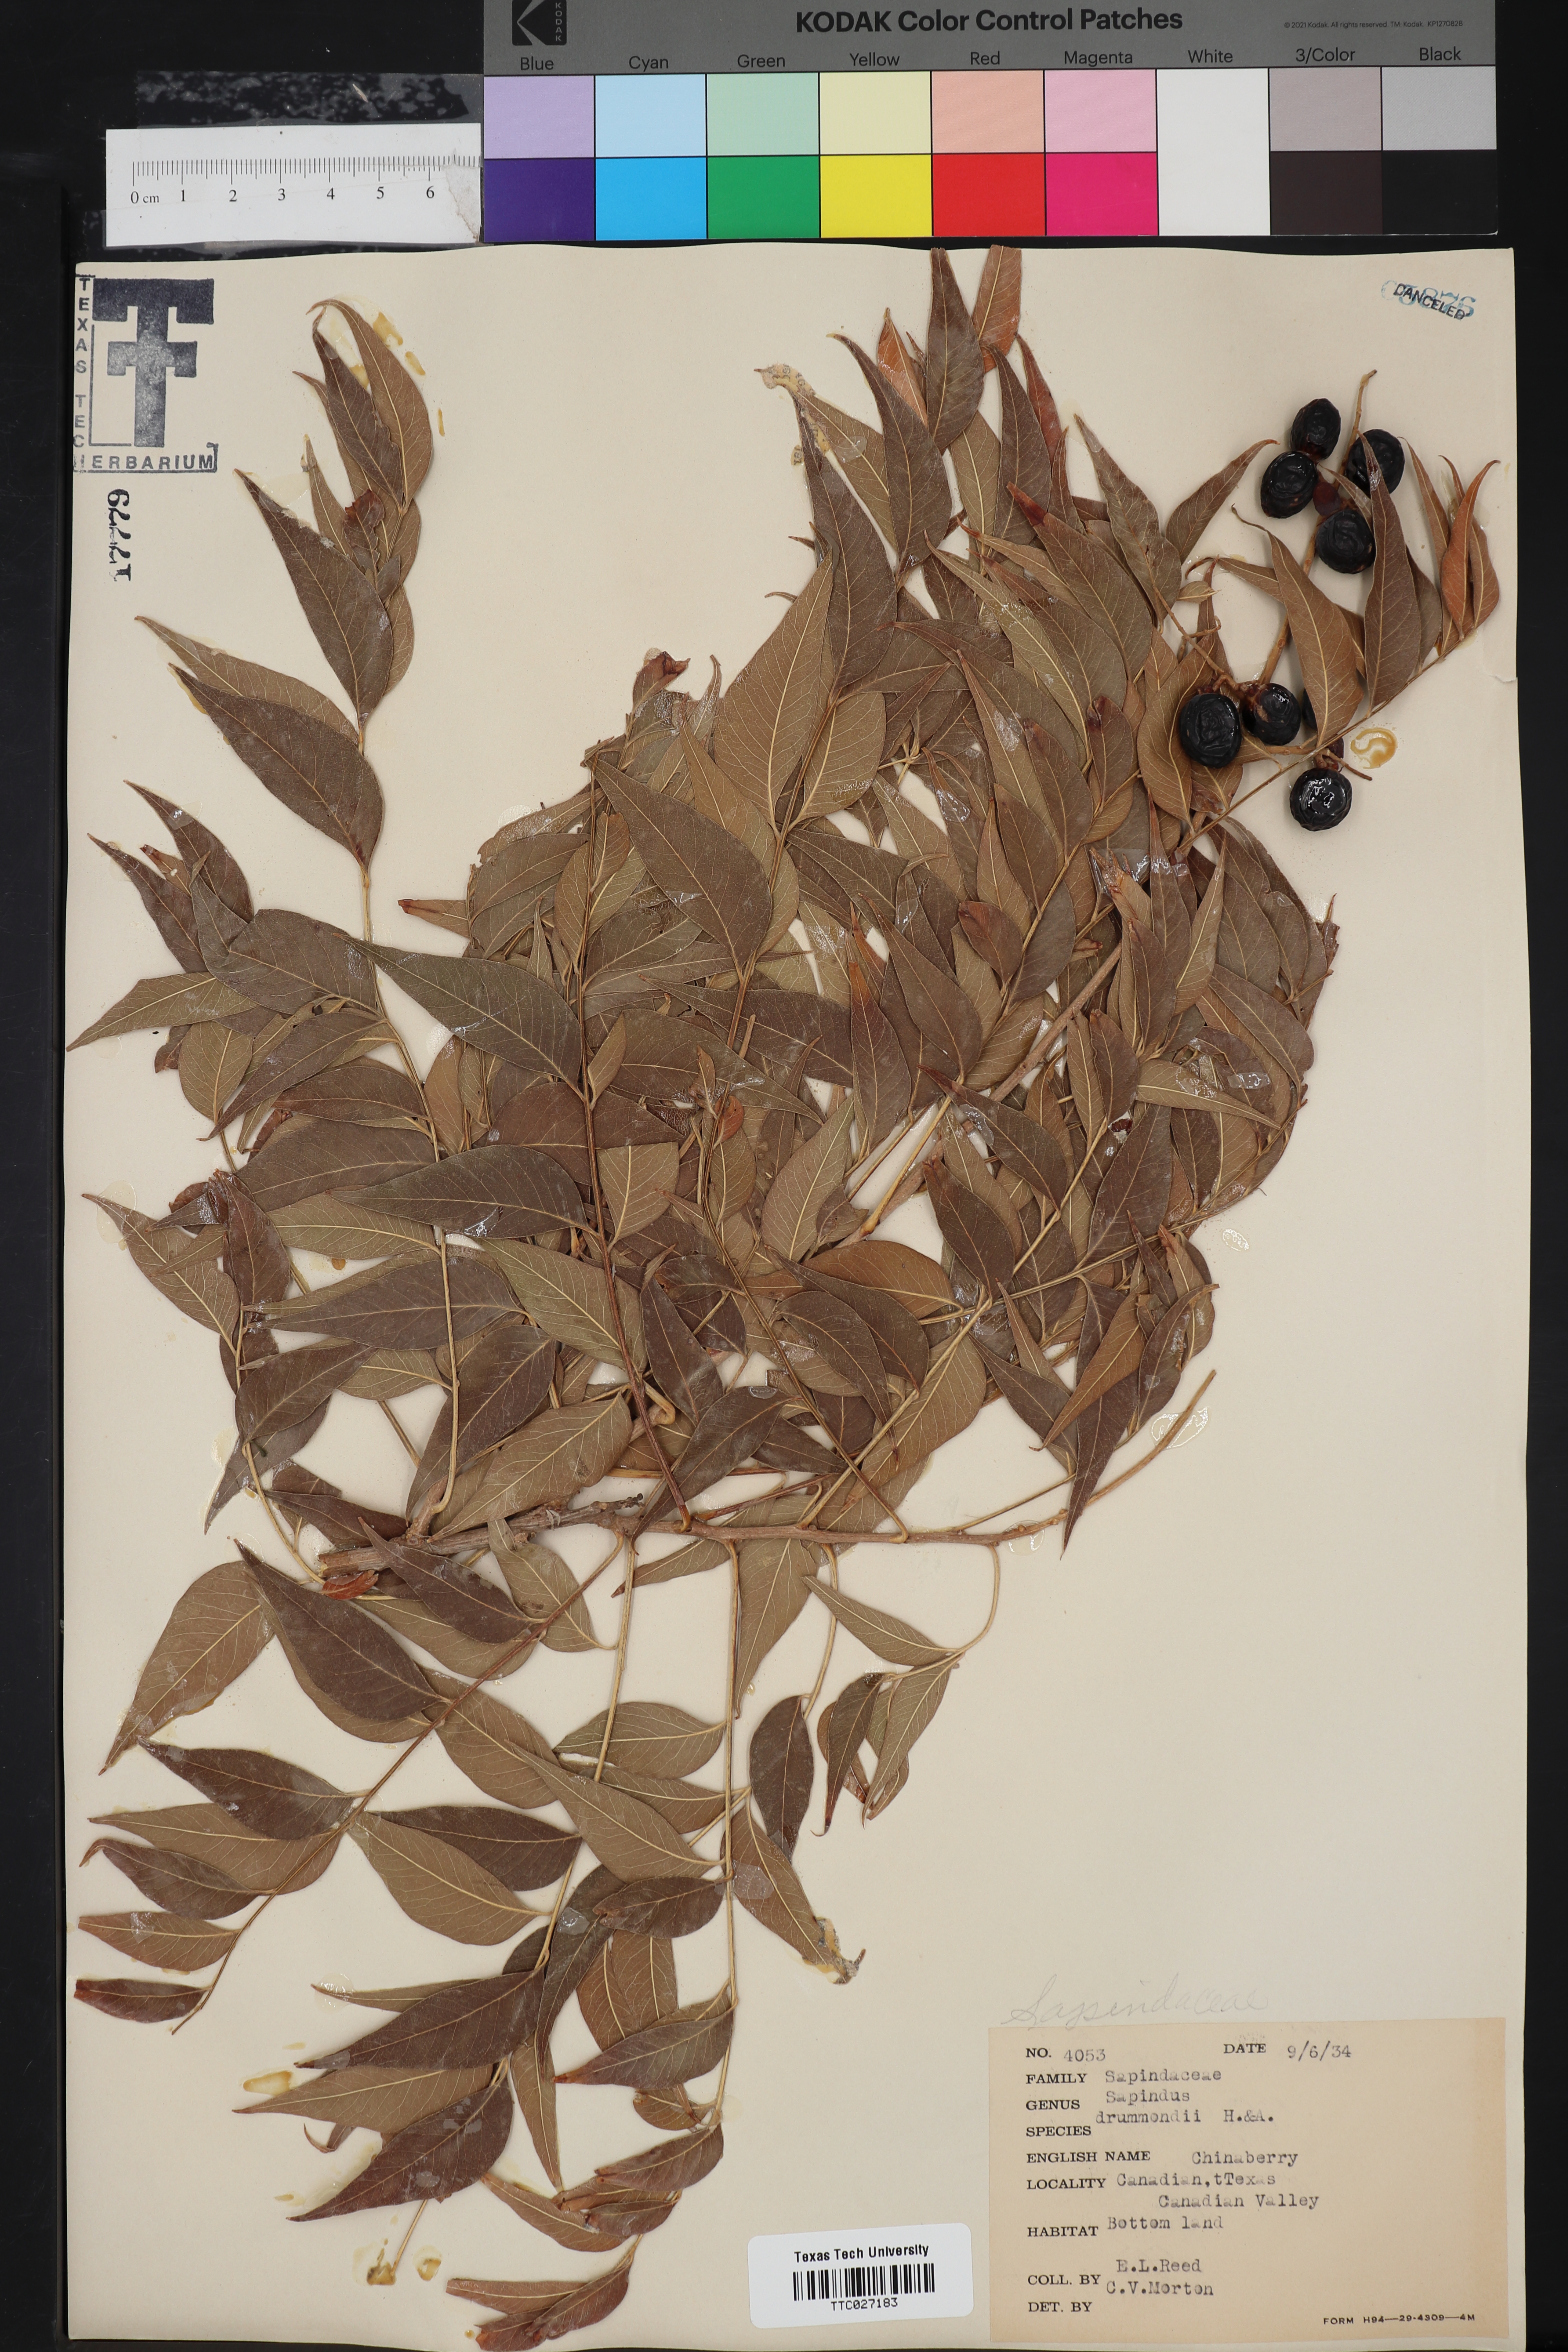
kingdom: Plantae
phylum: Tracheophyta
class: Magnoliopsida
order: Sapindales
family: Sapindaceae
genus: Sapindus
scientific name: Sapindus drummondii
